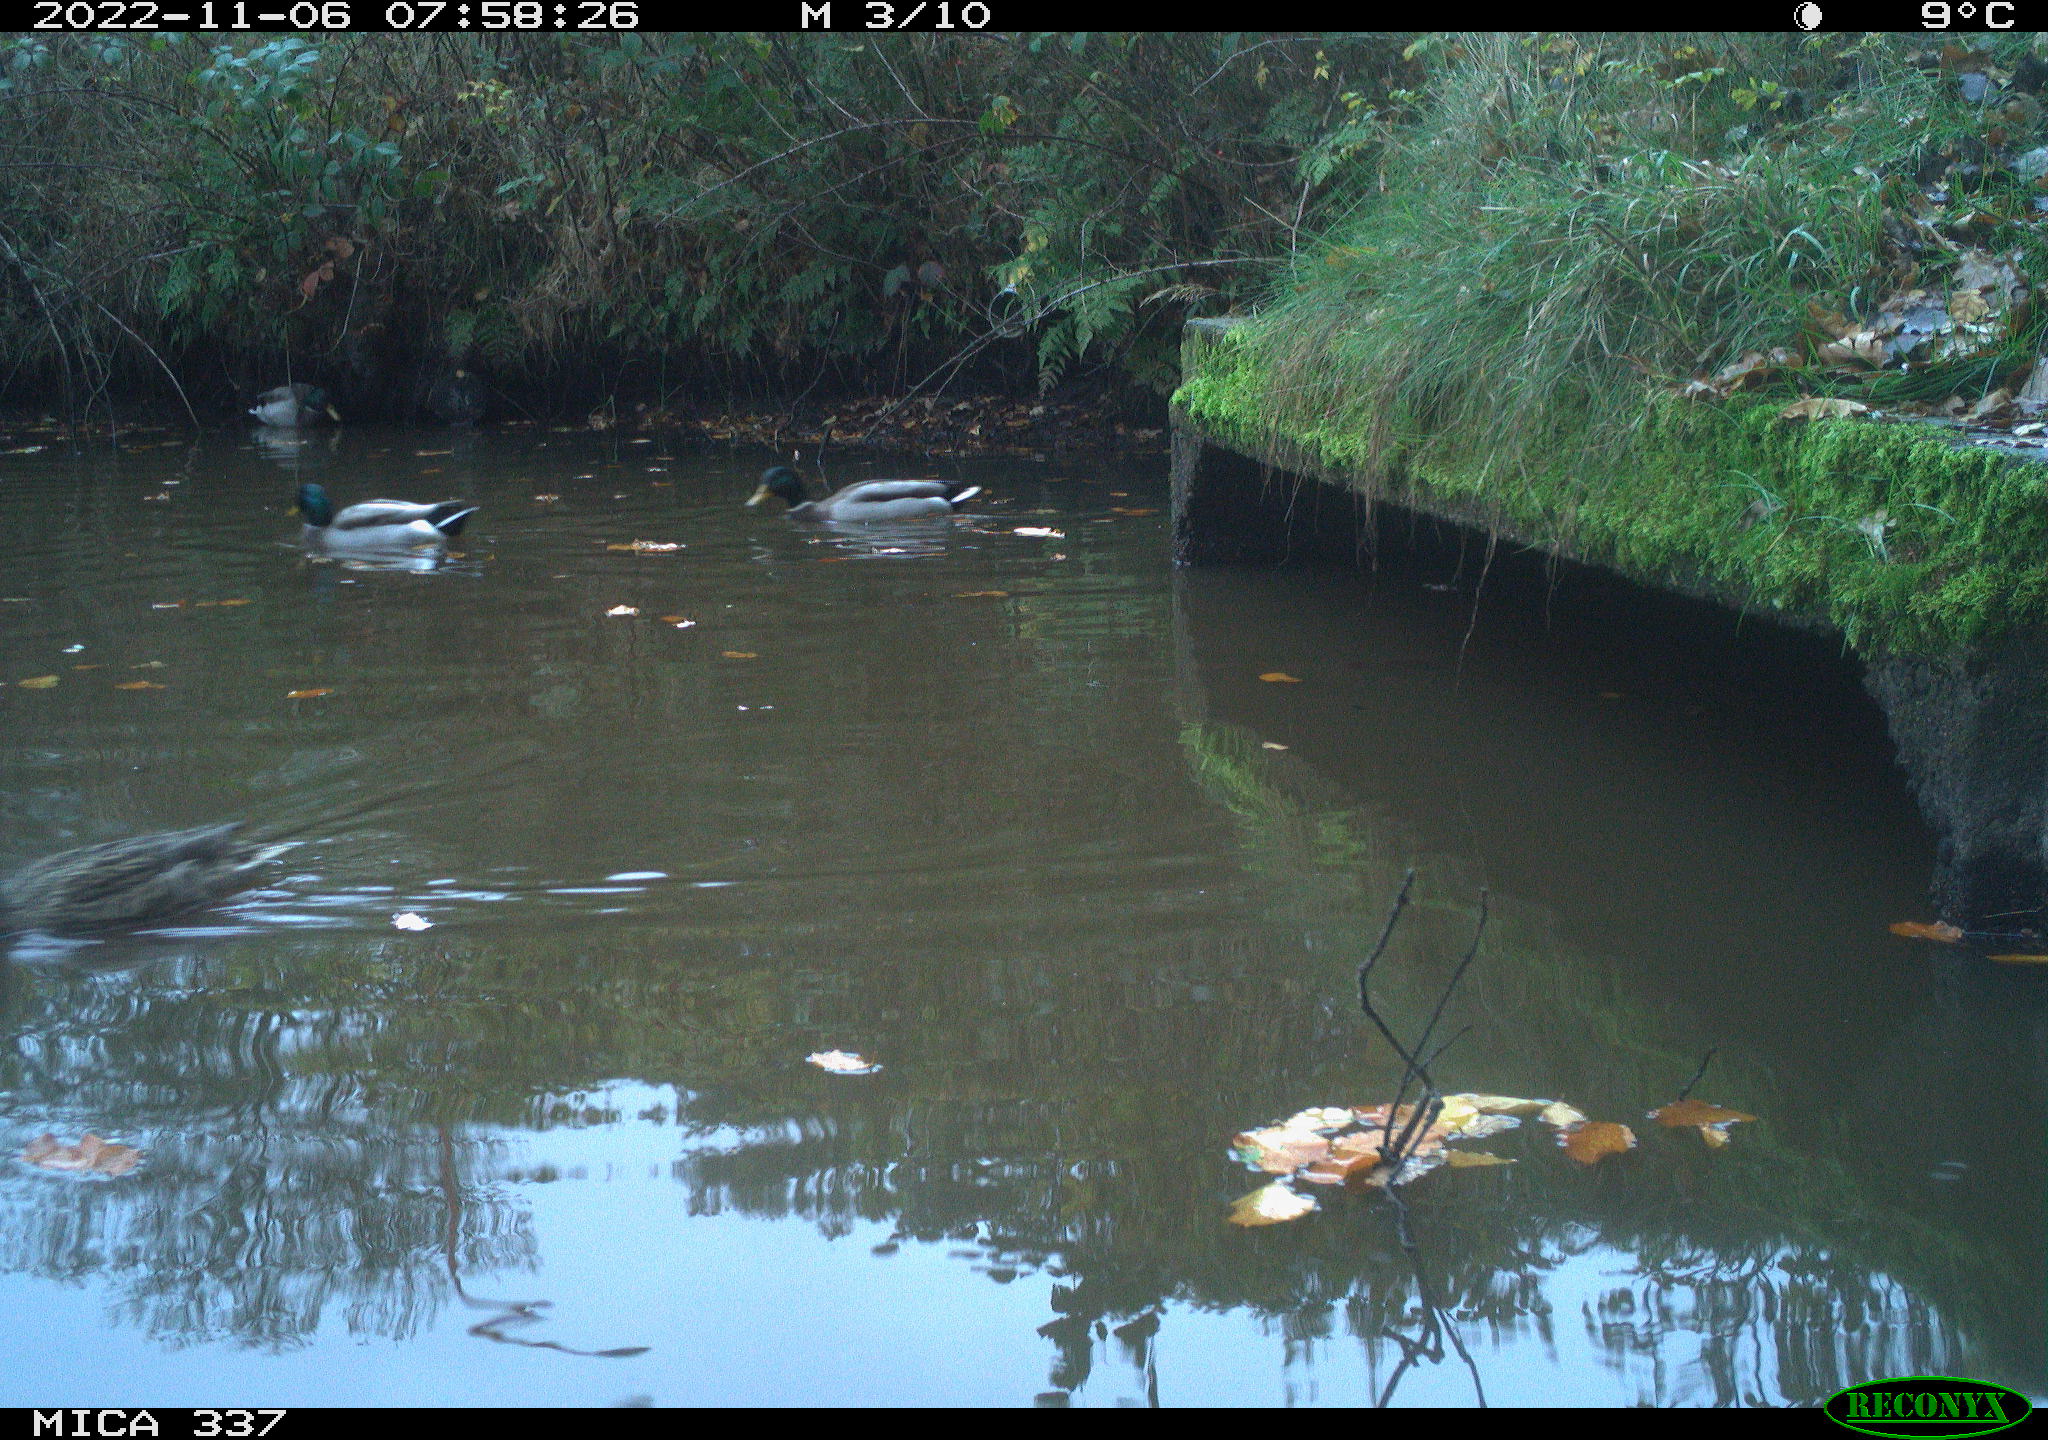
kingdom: Animalia
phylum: Chordata
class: Aves
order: Anseriformes
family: Anatidae
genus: Anas
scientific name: Anas platyrhynchos
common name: Mallard
